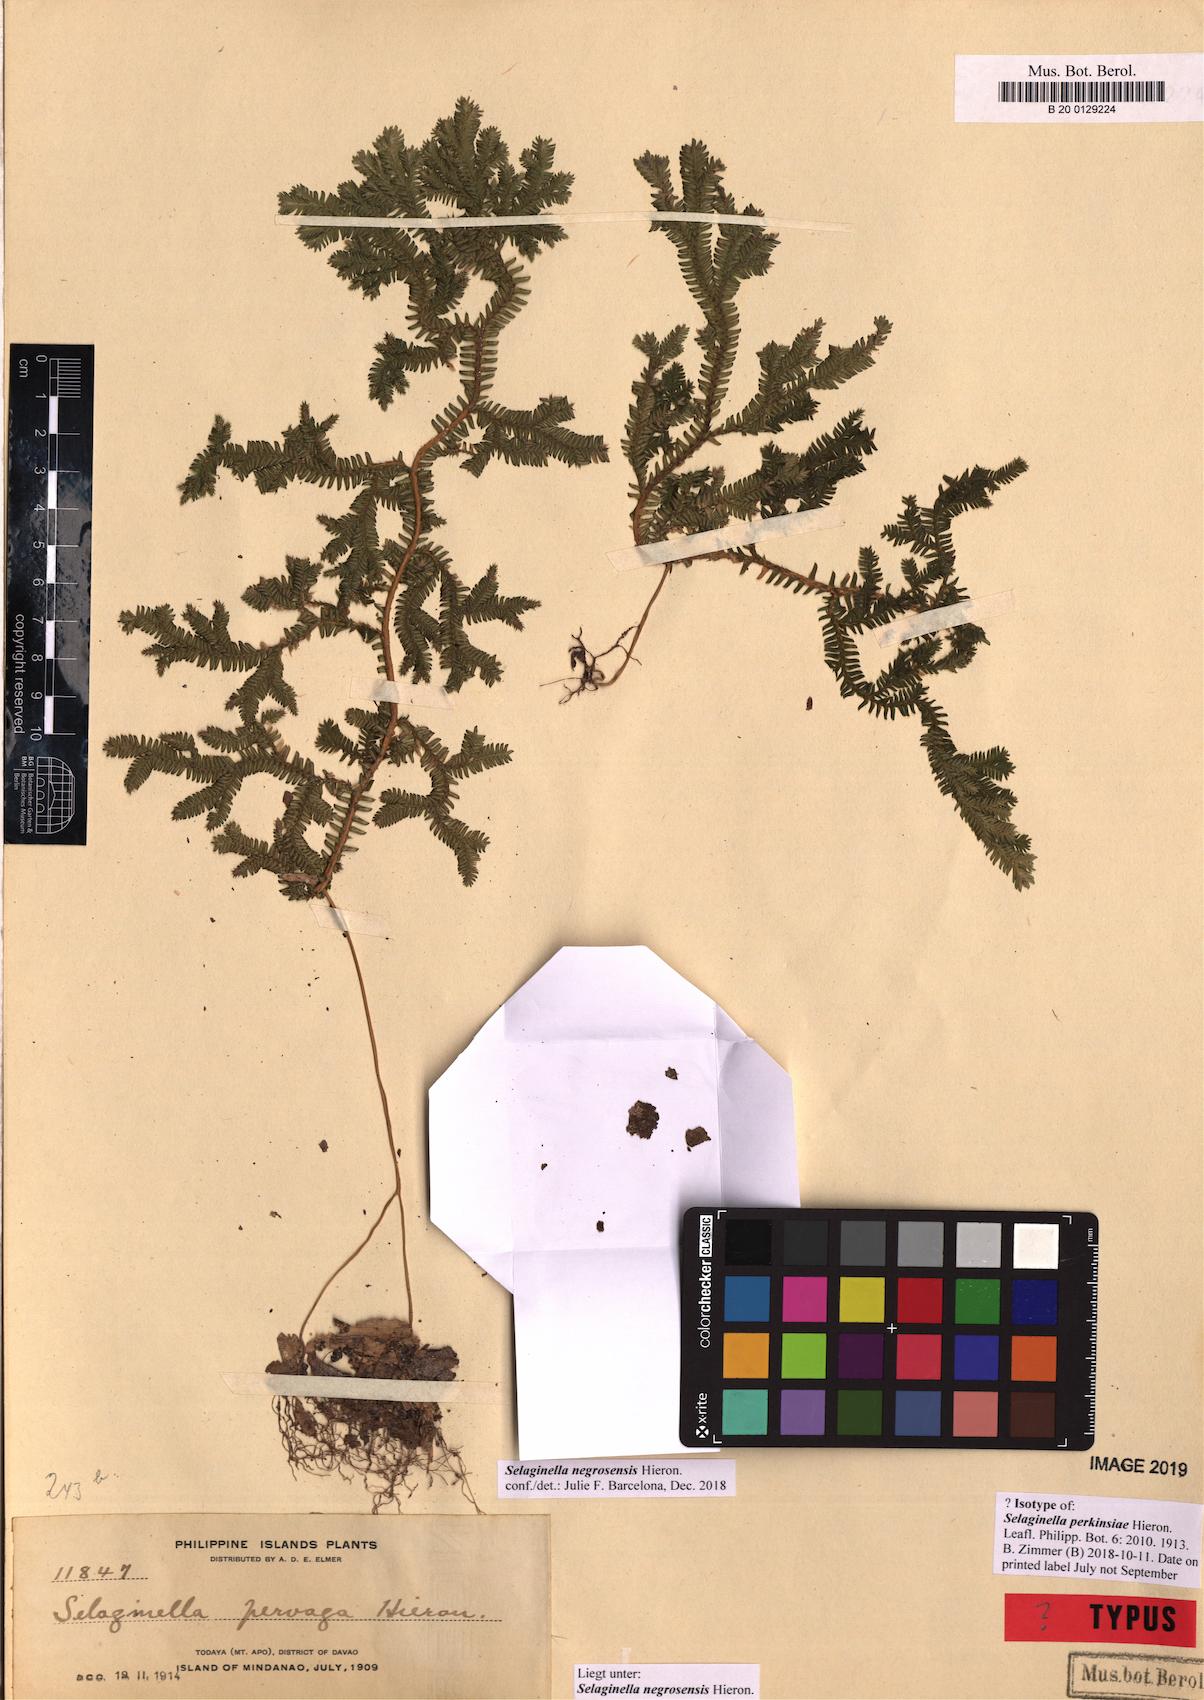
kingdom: Plantae
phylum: Tracheophyta
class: Lycopodiopsida
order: Selaginellales
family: Selaginellaceae
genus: Selaginella
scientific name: Selaginella negrosensis
